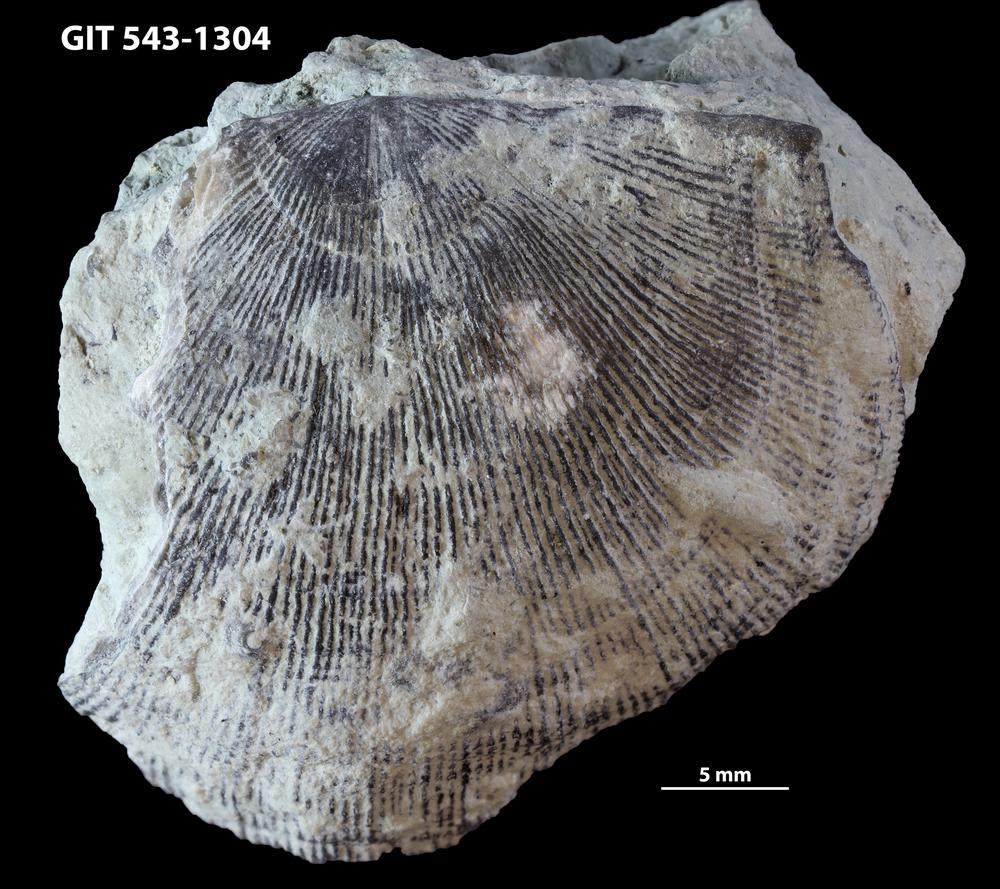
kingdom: Animalia
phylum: Brachiopoda
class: Rhynchonellata
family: Clitambonitidae
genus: Ilmarinia
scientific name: Ilmarinia dimorpha
